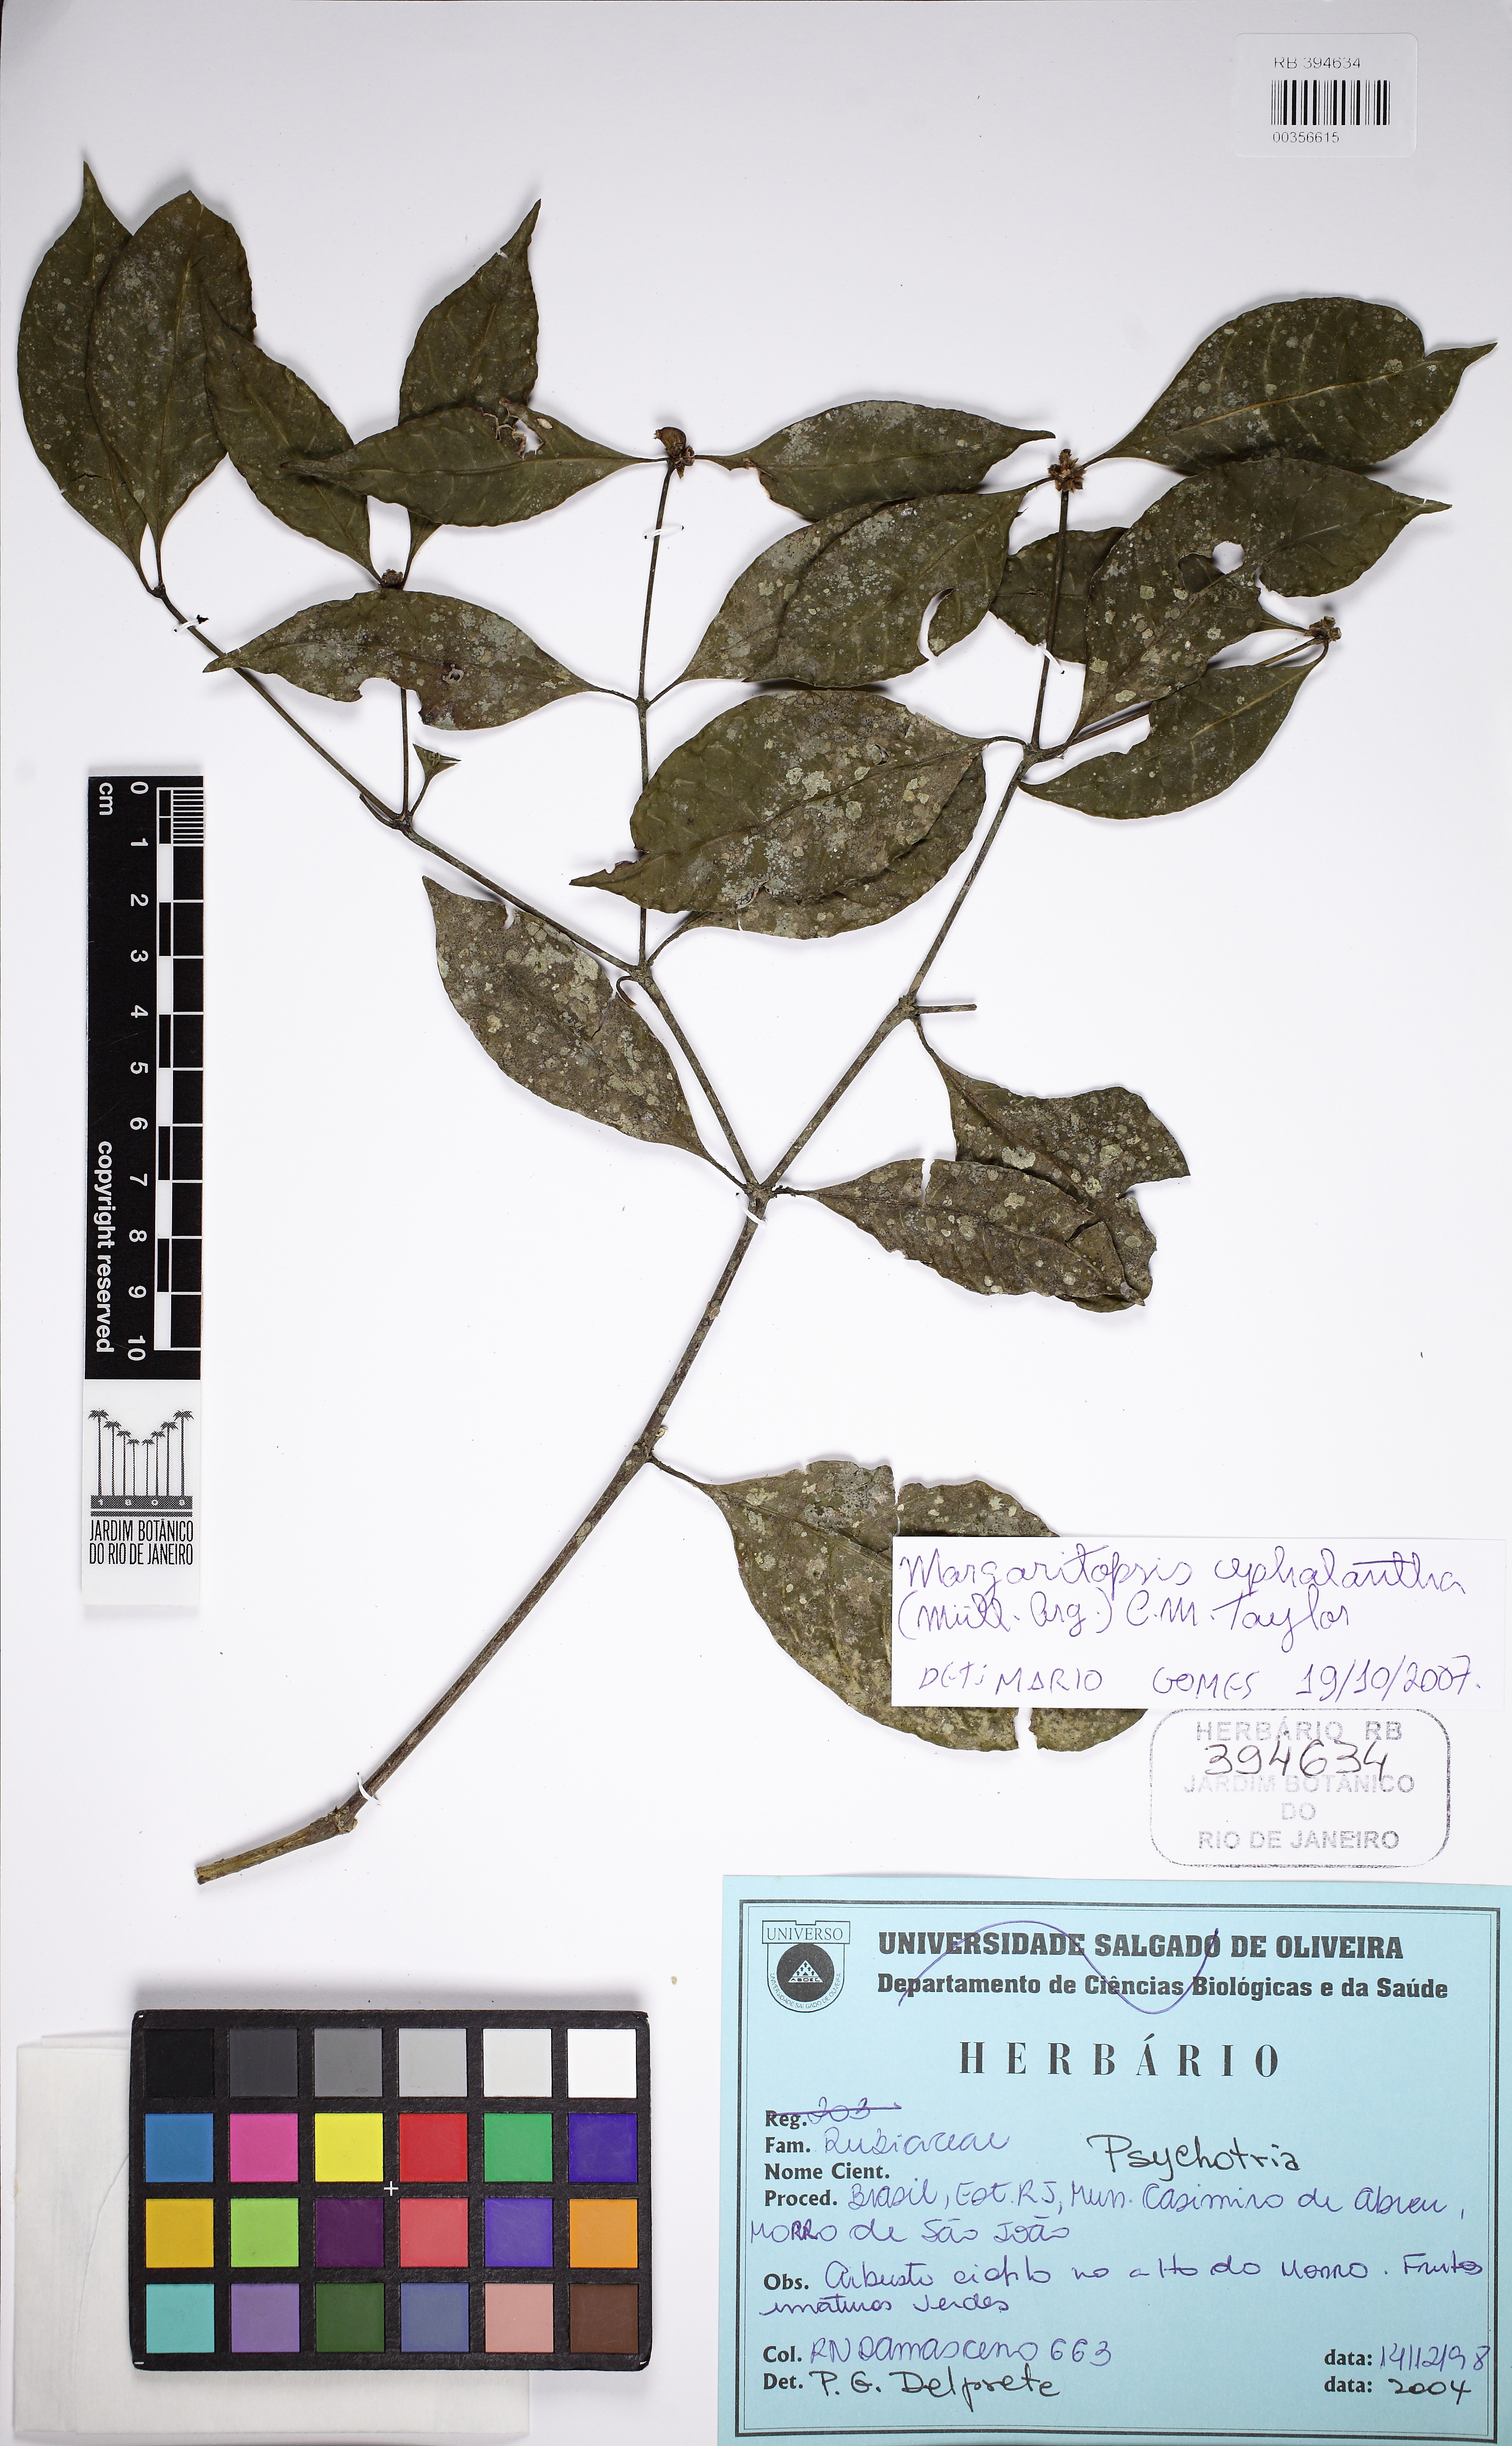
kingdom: Plantae
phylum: Tracheophyta
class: Magnoliopsida
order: Gentianales
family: Rubiaceae
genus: Eumachia
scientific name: Eumachia cephalantha
